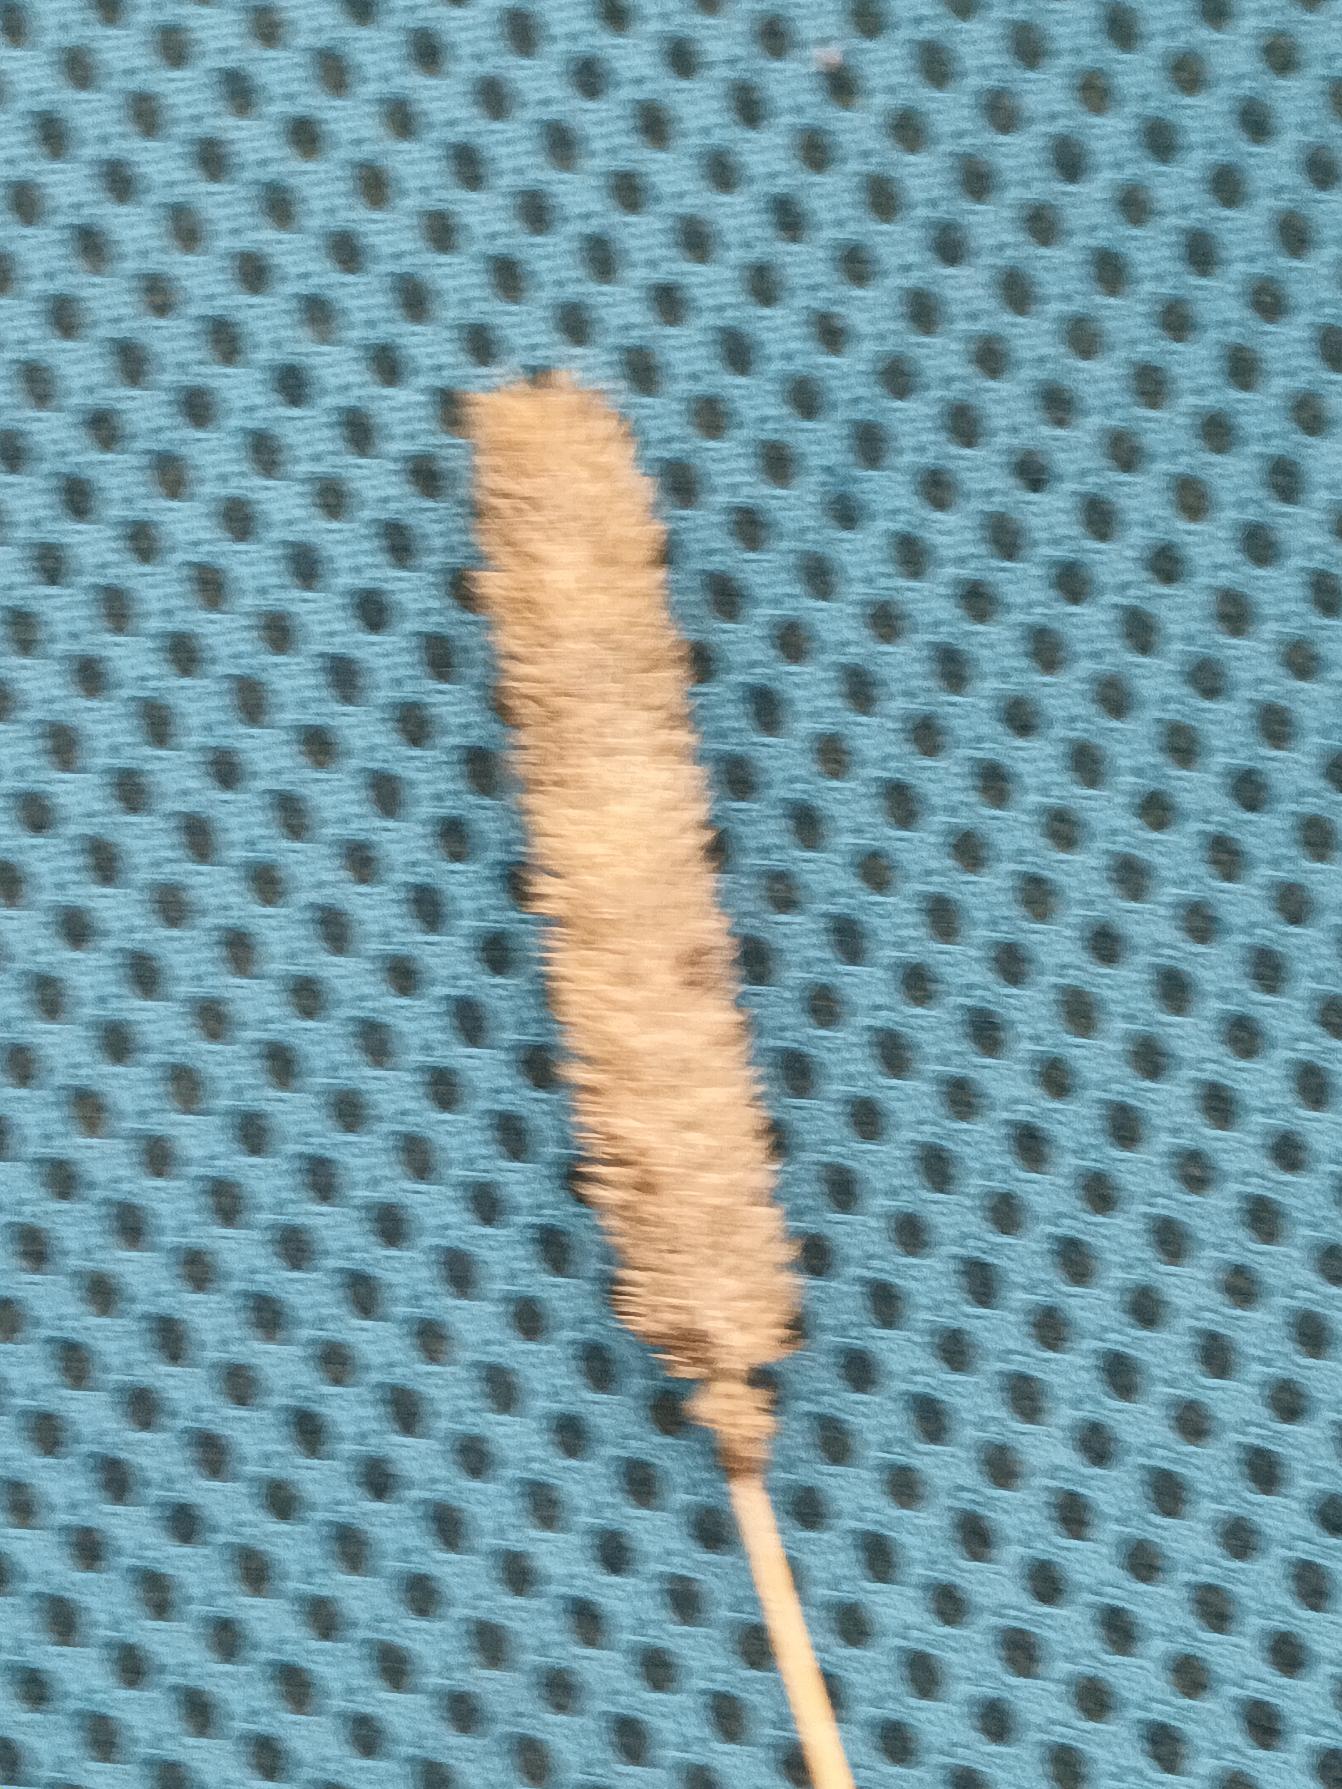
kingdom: Plantae
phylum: Tracheophyta
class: Liliopsida
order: Poales
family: Poaceae
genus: Phleum
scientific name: Phleum pratense
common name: Eng-rottehale
